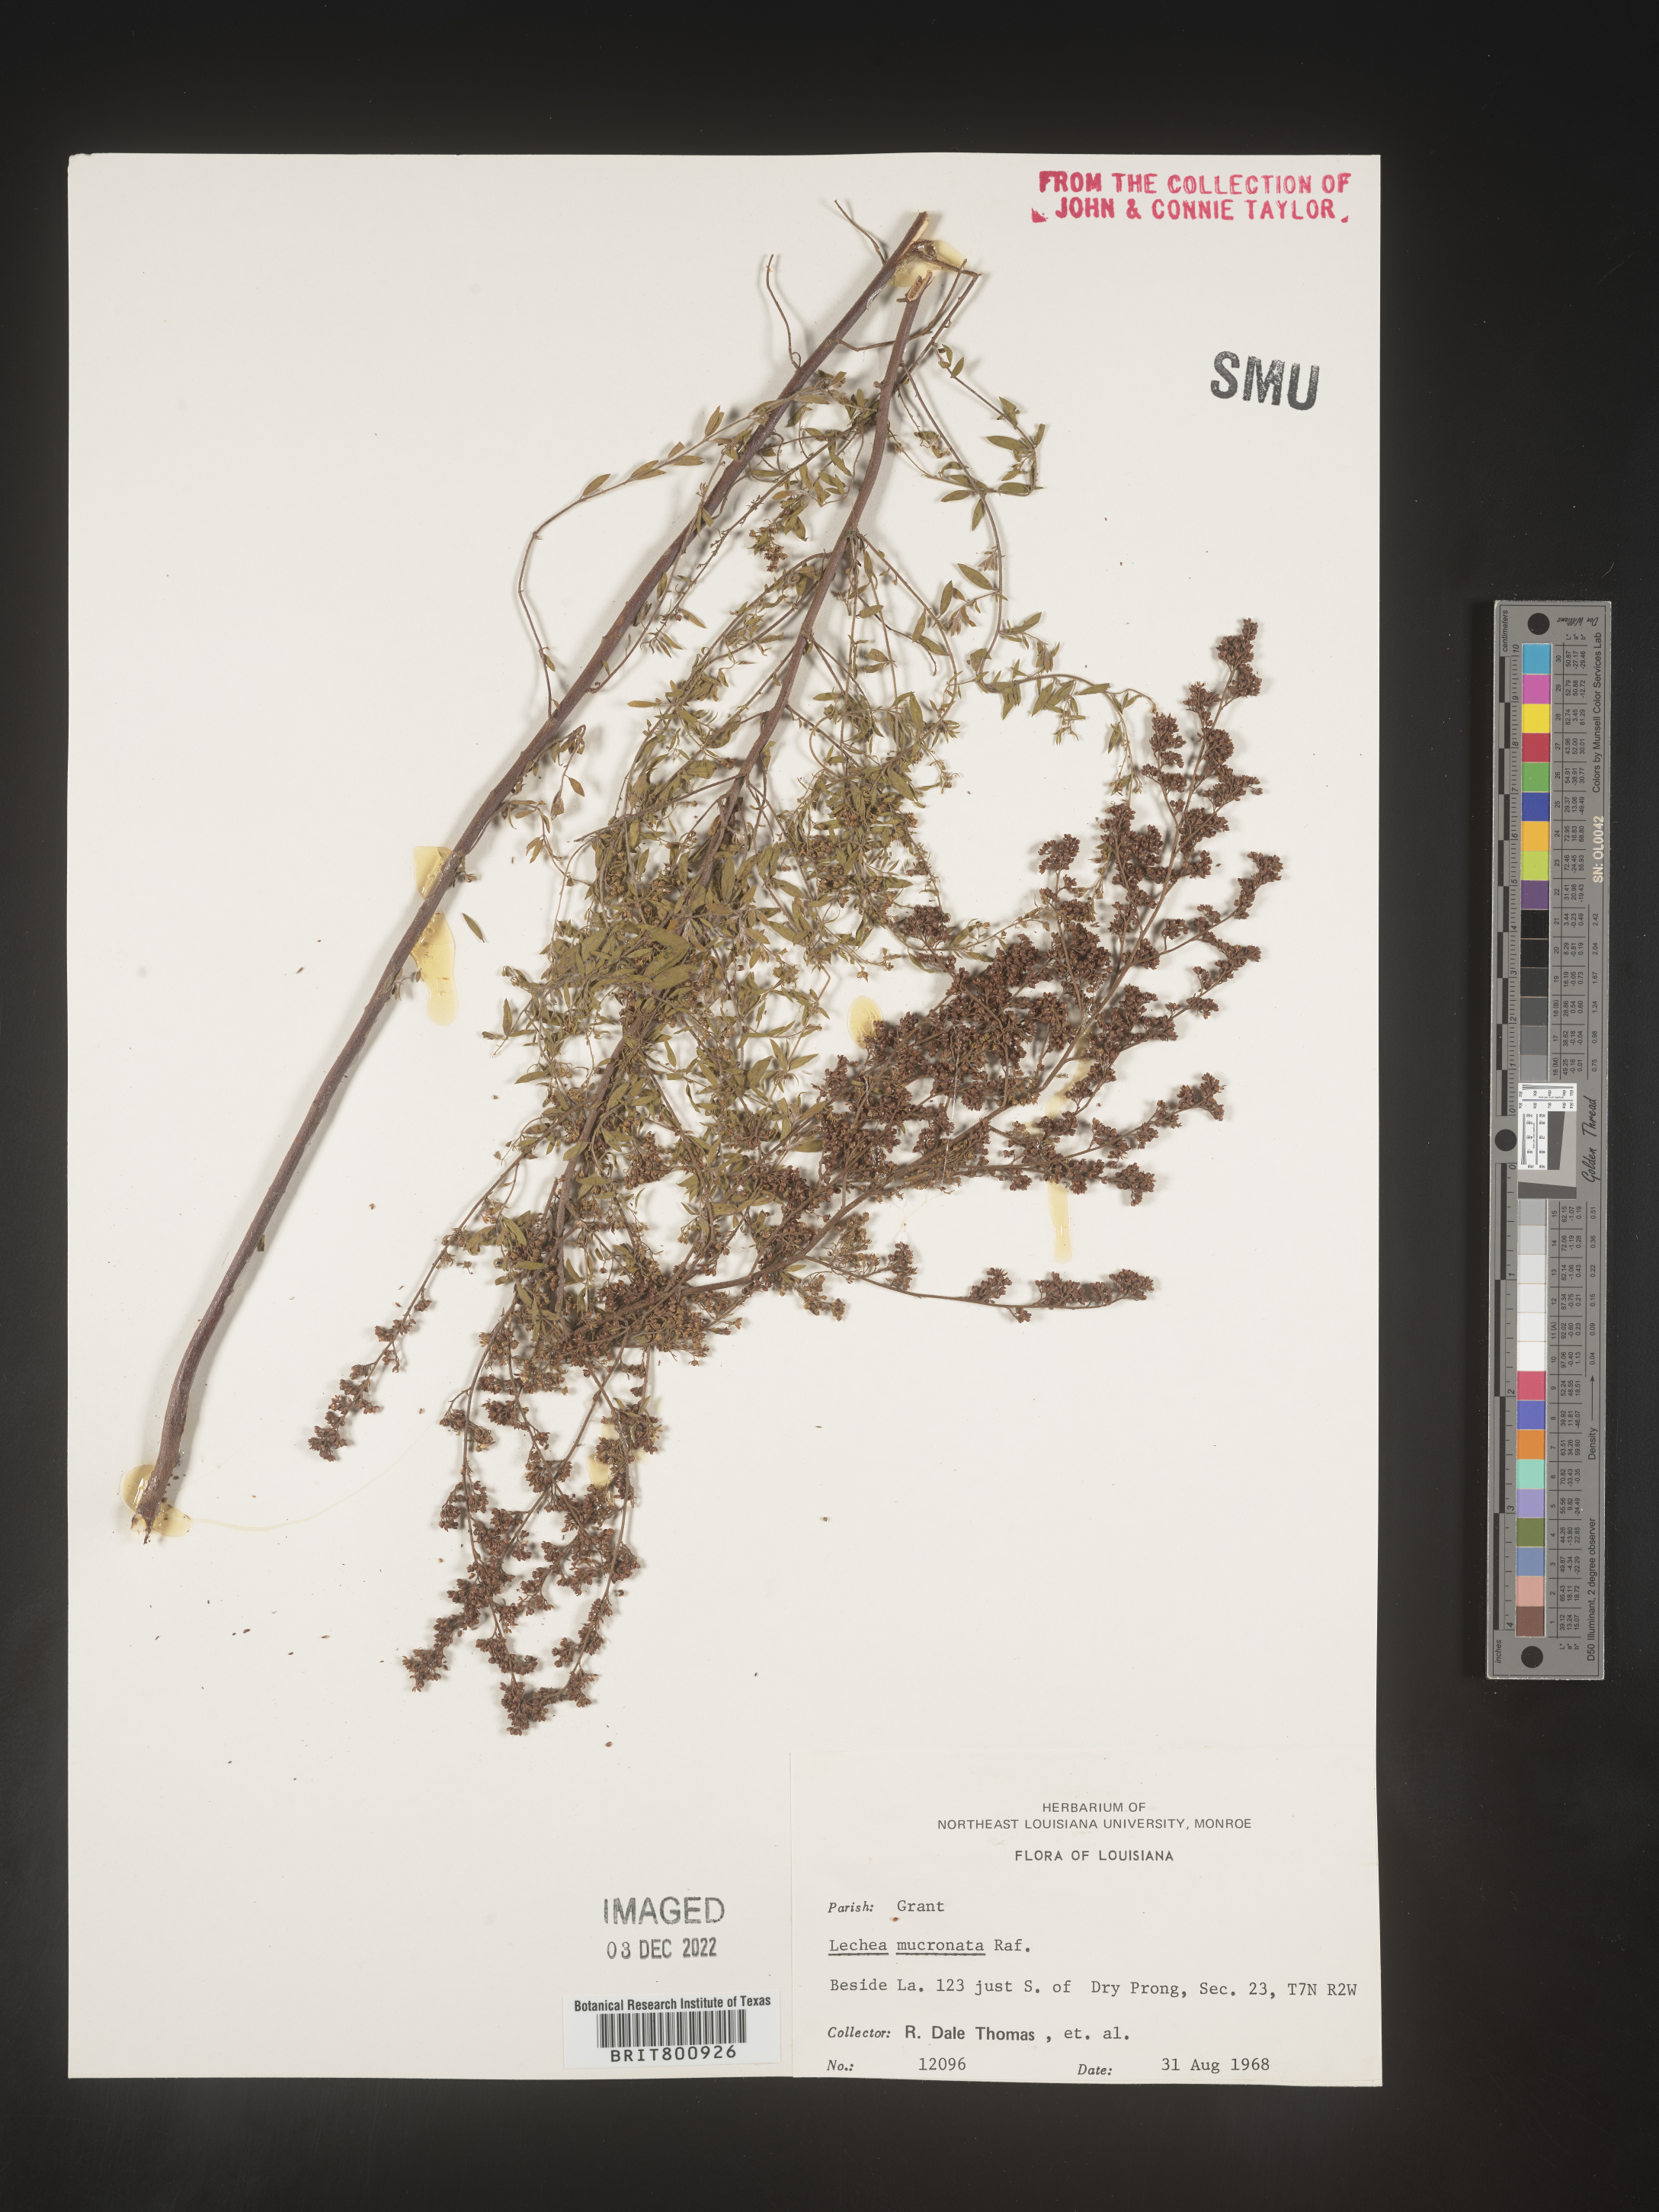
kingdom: Plantae
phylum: Tracheophyta
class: Magnoliopsida
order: Malvales
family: Cistaceae
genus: Lechea
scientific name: Lechea mucronata
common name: Hairy pinweed
